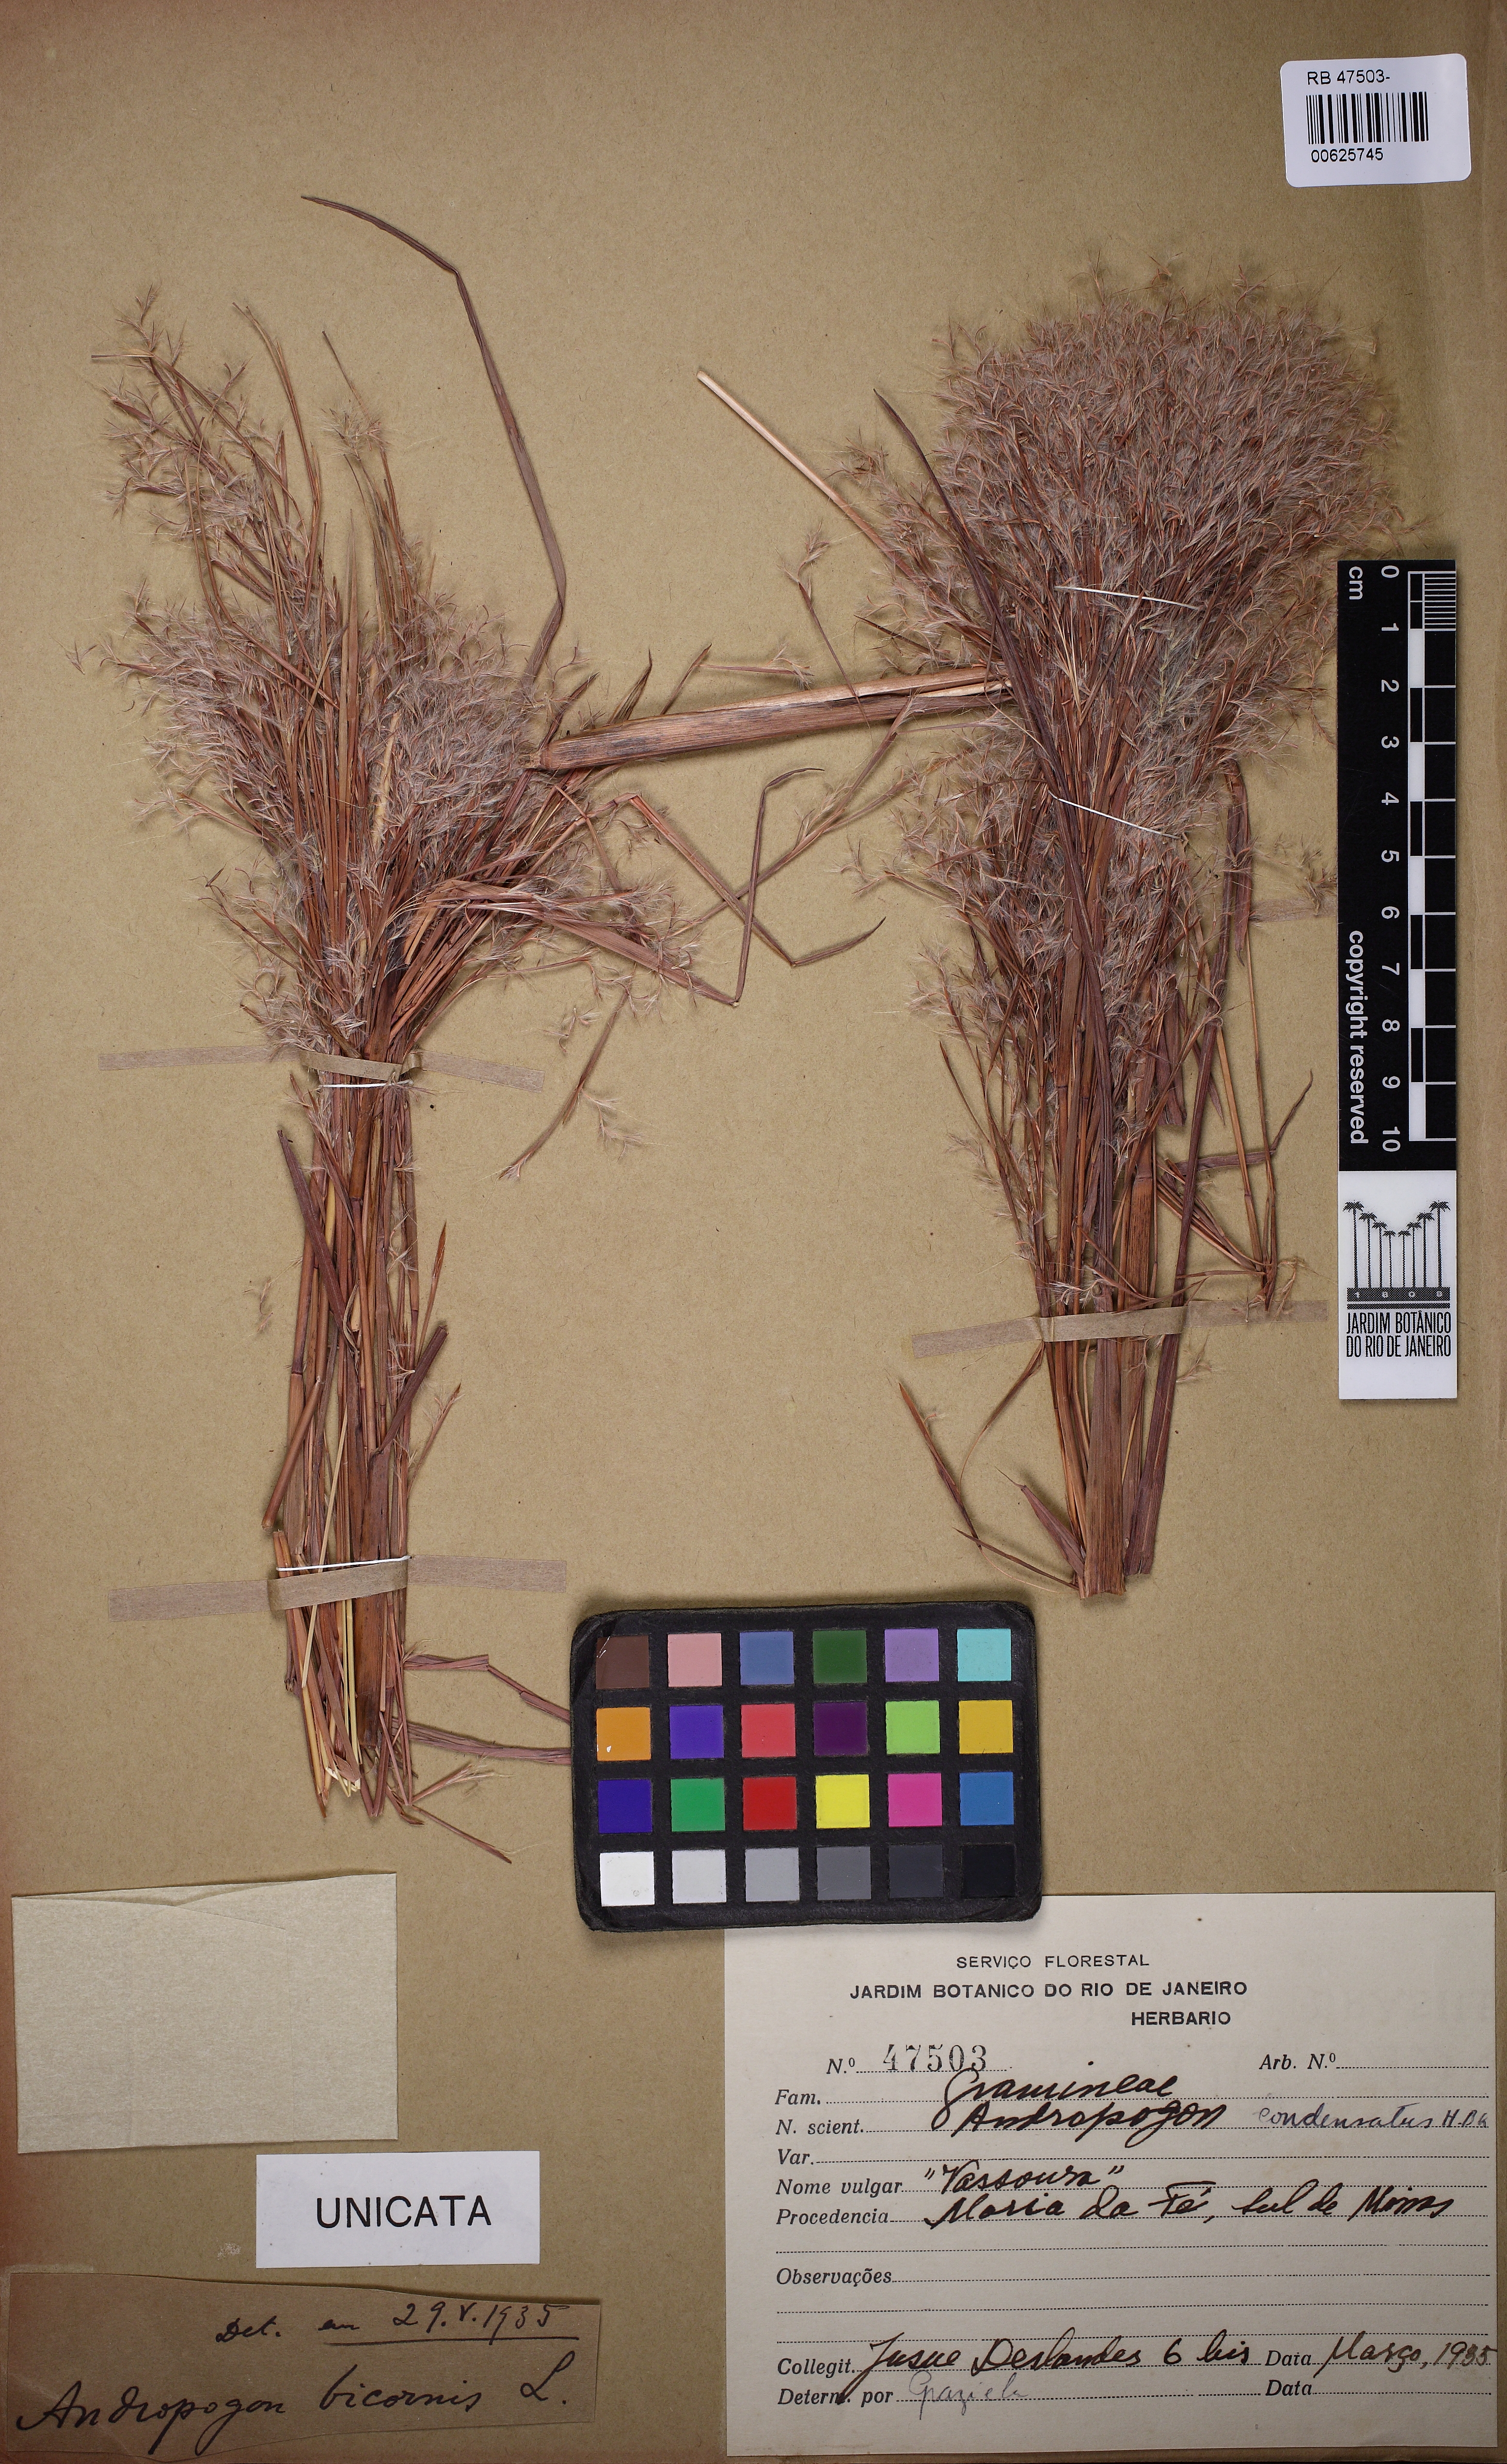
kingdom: Plantae
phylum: Tracheophyta
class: Liliopsida
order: Poales
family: Poaceae
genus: Schizachyrium
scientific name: Schizachyrium condensatum
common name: Bush beardgrass
